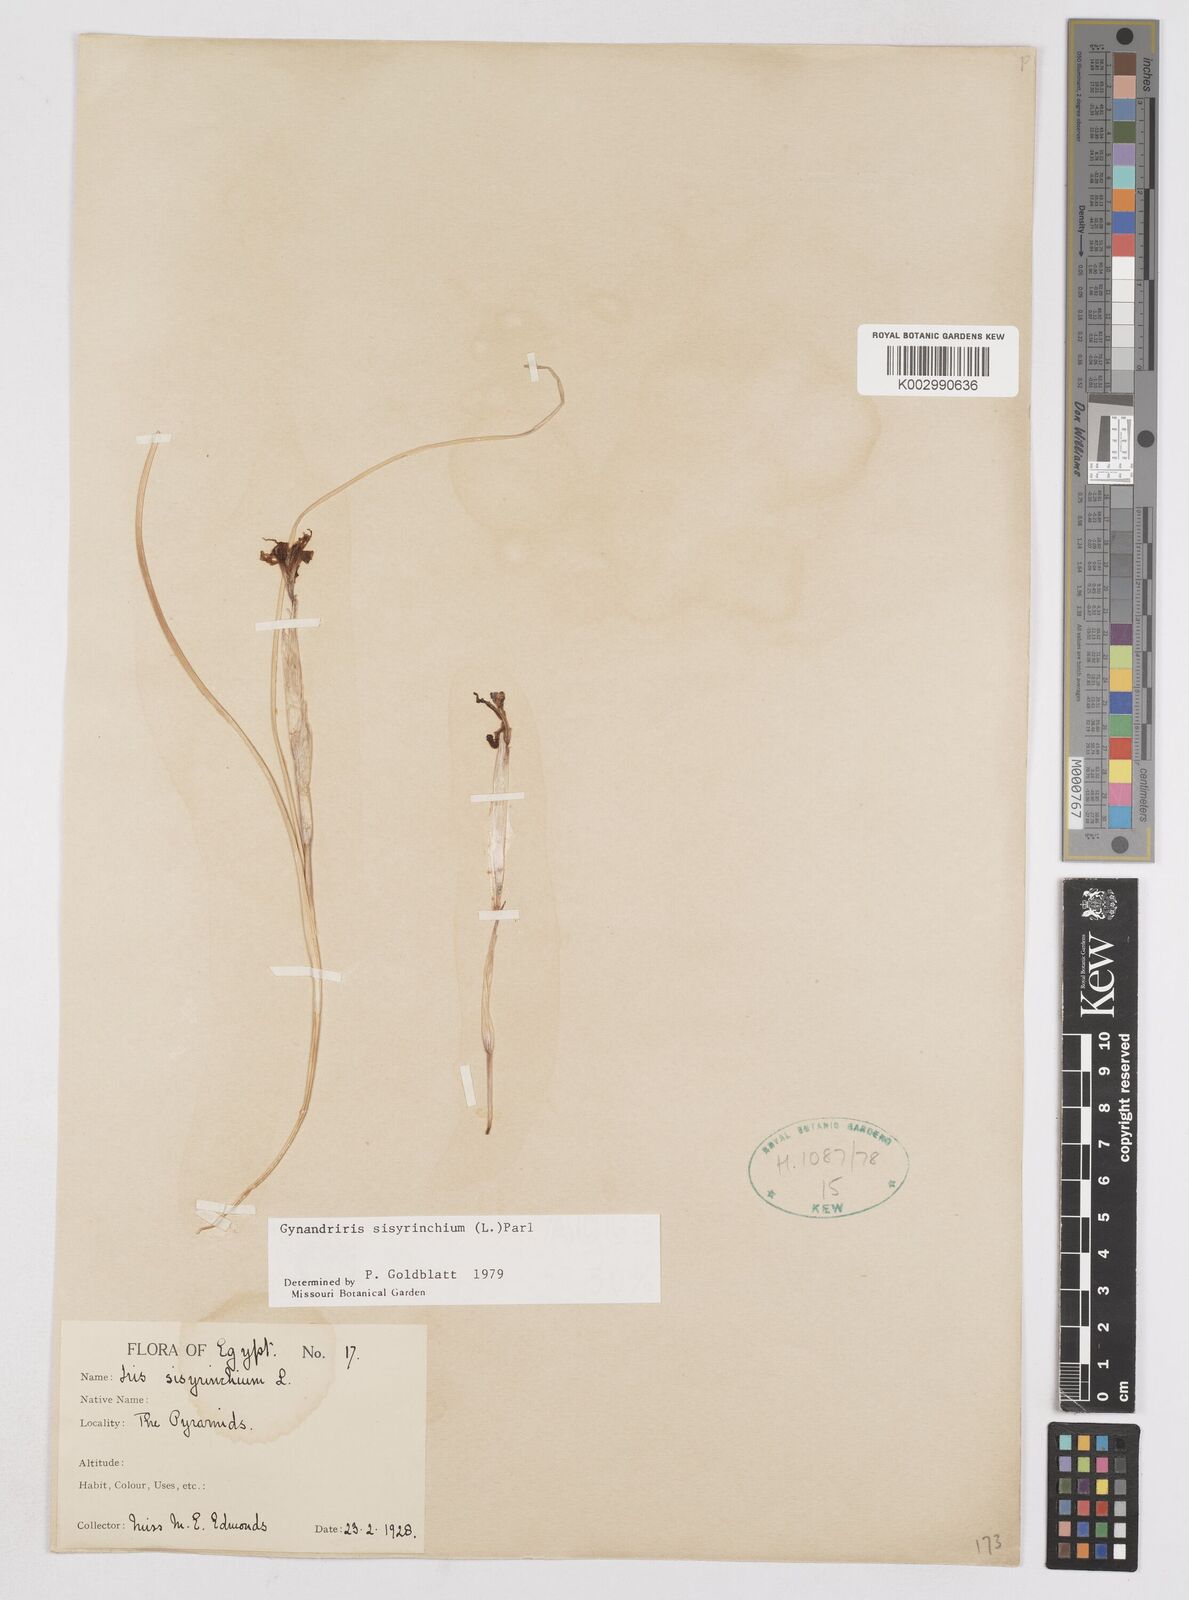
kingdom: Plantae
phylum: Tracheophyta
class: Liliopsida
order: Asparagales
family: Iridaceae
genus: Moraea
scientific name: Moraea sisyrinchium
